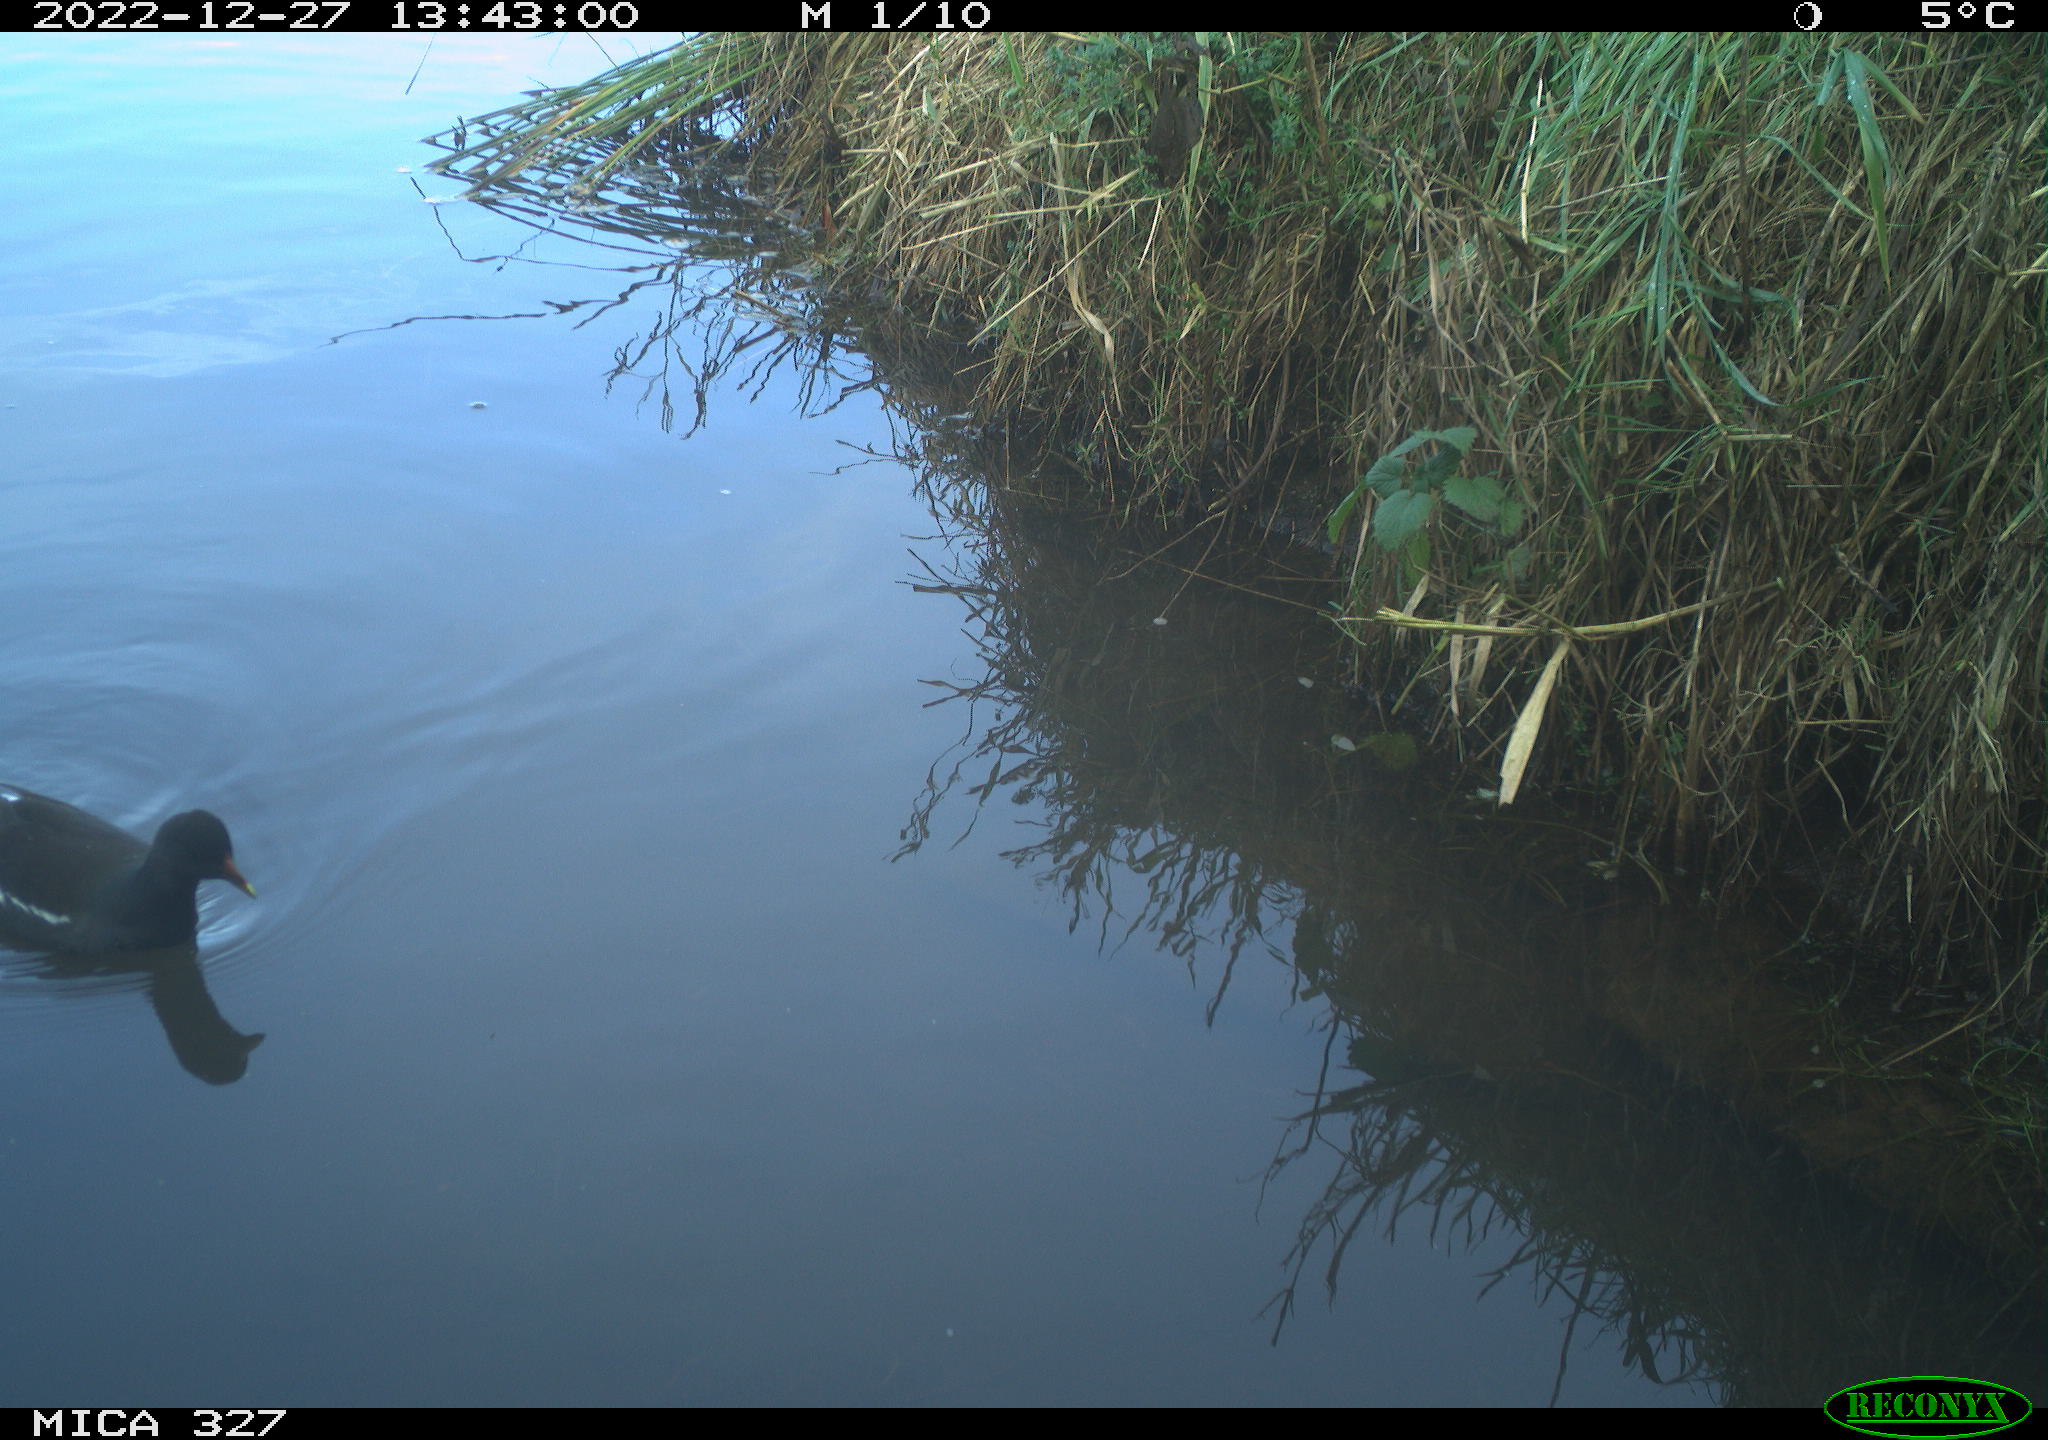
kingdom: Animalia
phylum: Chordata
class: Aves
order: Gruiformes
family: Rallidae
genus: Gallinula
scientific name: Gallinula chloropus
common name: Common moorhen
